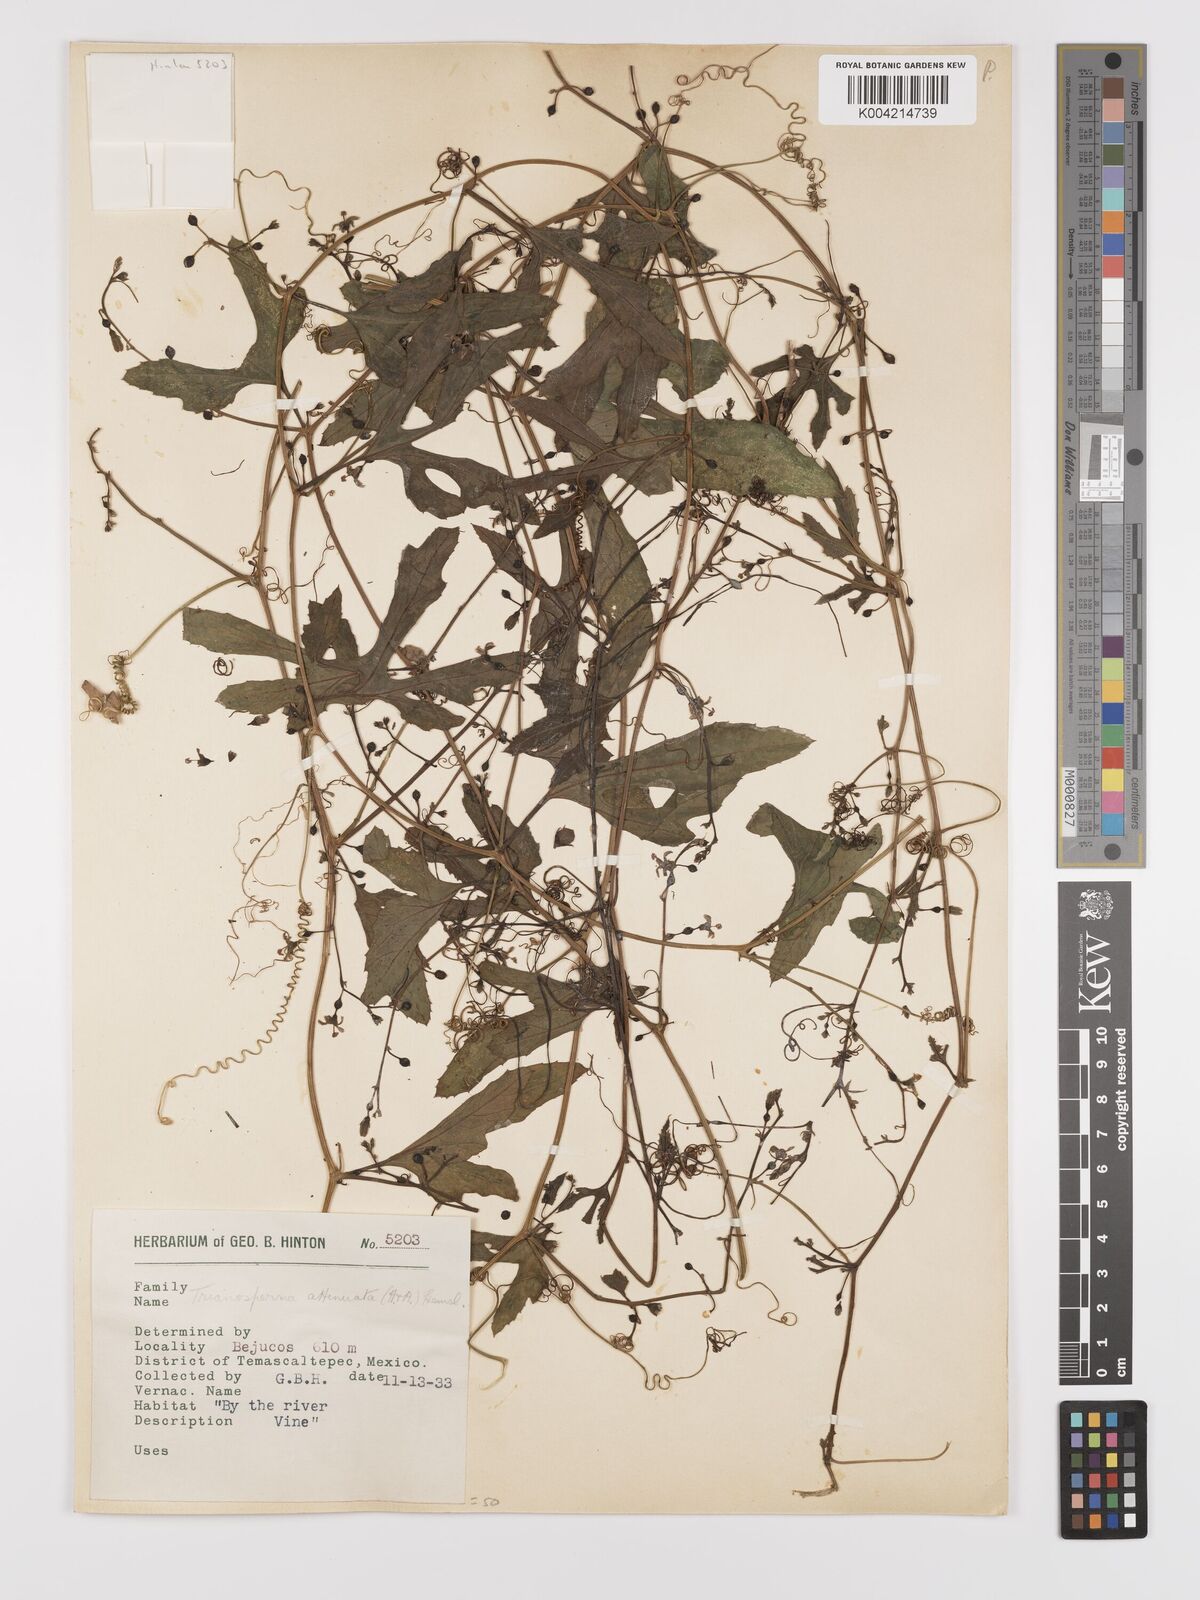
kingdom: Plantae
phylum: Tracheophyta
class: Magnoliopsida
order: Cucurbitales
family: Cucurbitaceae
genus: Cayaponia
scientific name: Cayaponia attenuata
